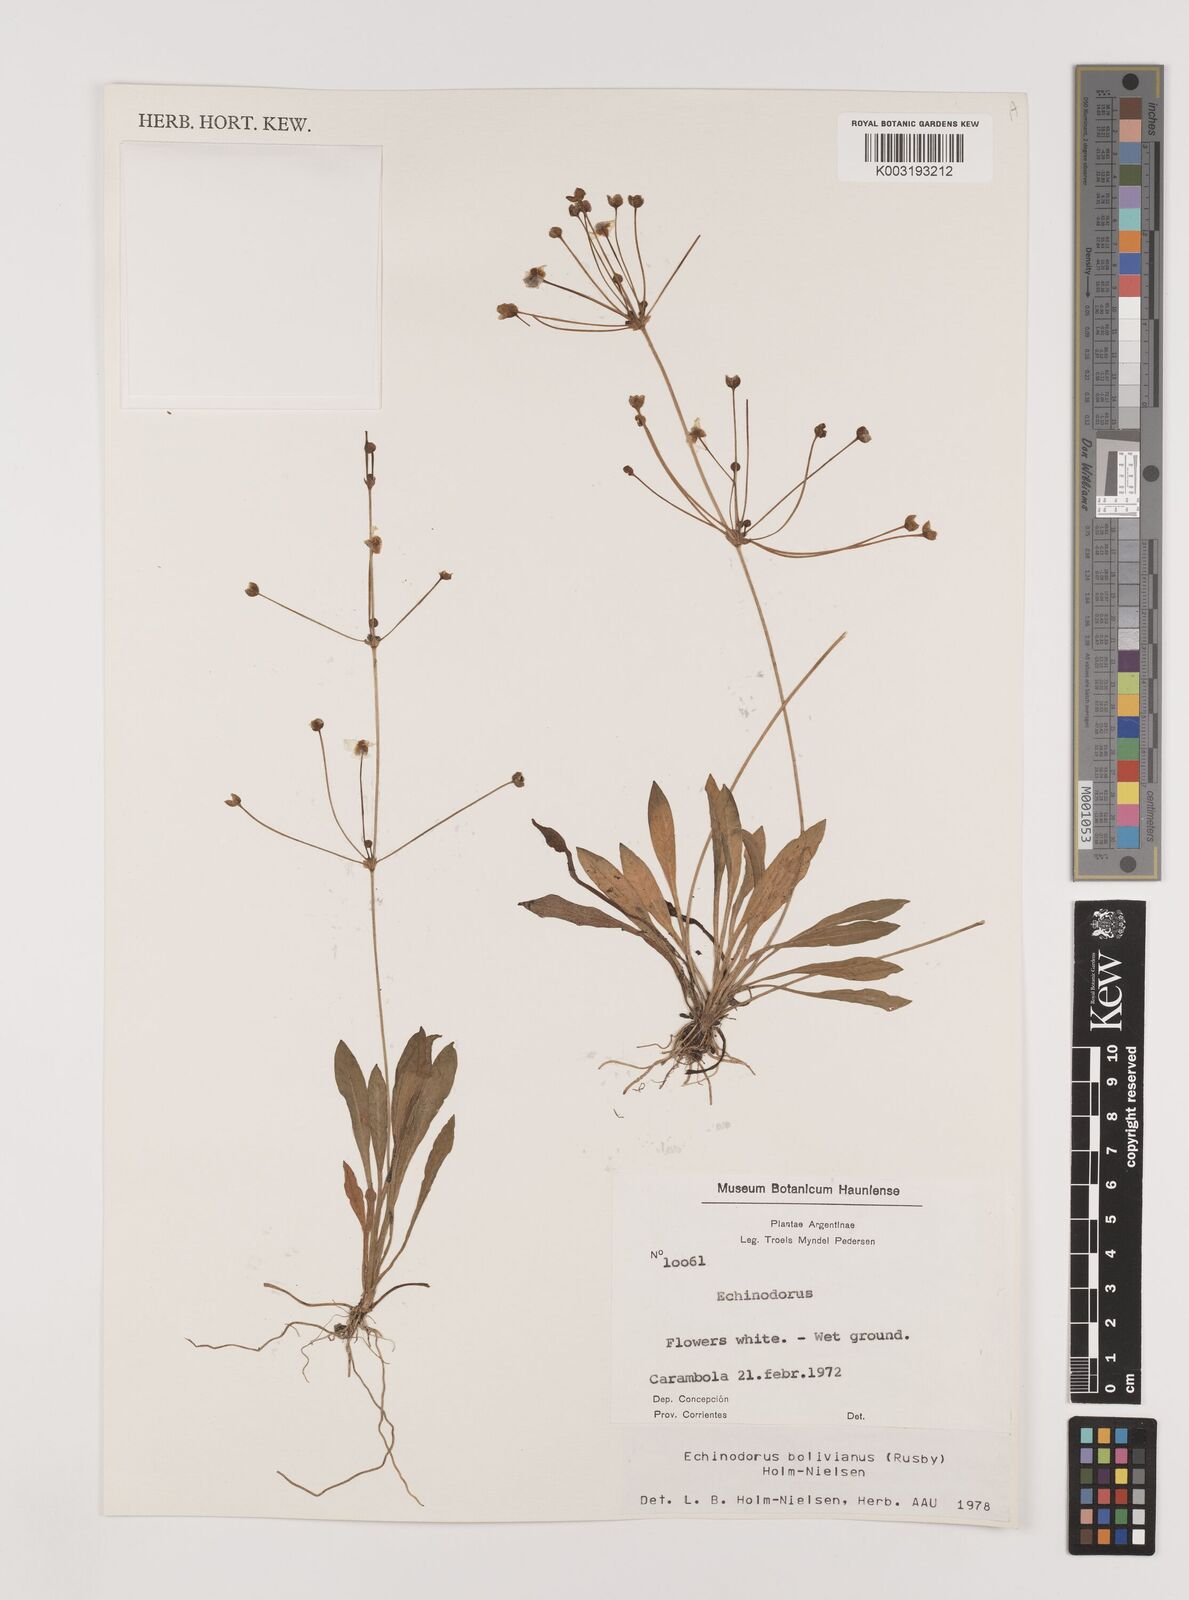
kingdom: Plantae
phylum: Tracheophyta
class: Liliopsida
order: Alismatales
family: Alismataceae
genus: Helanthium
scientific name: Helanthium bolivianum
